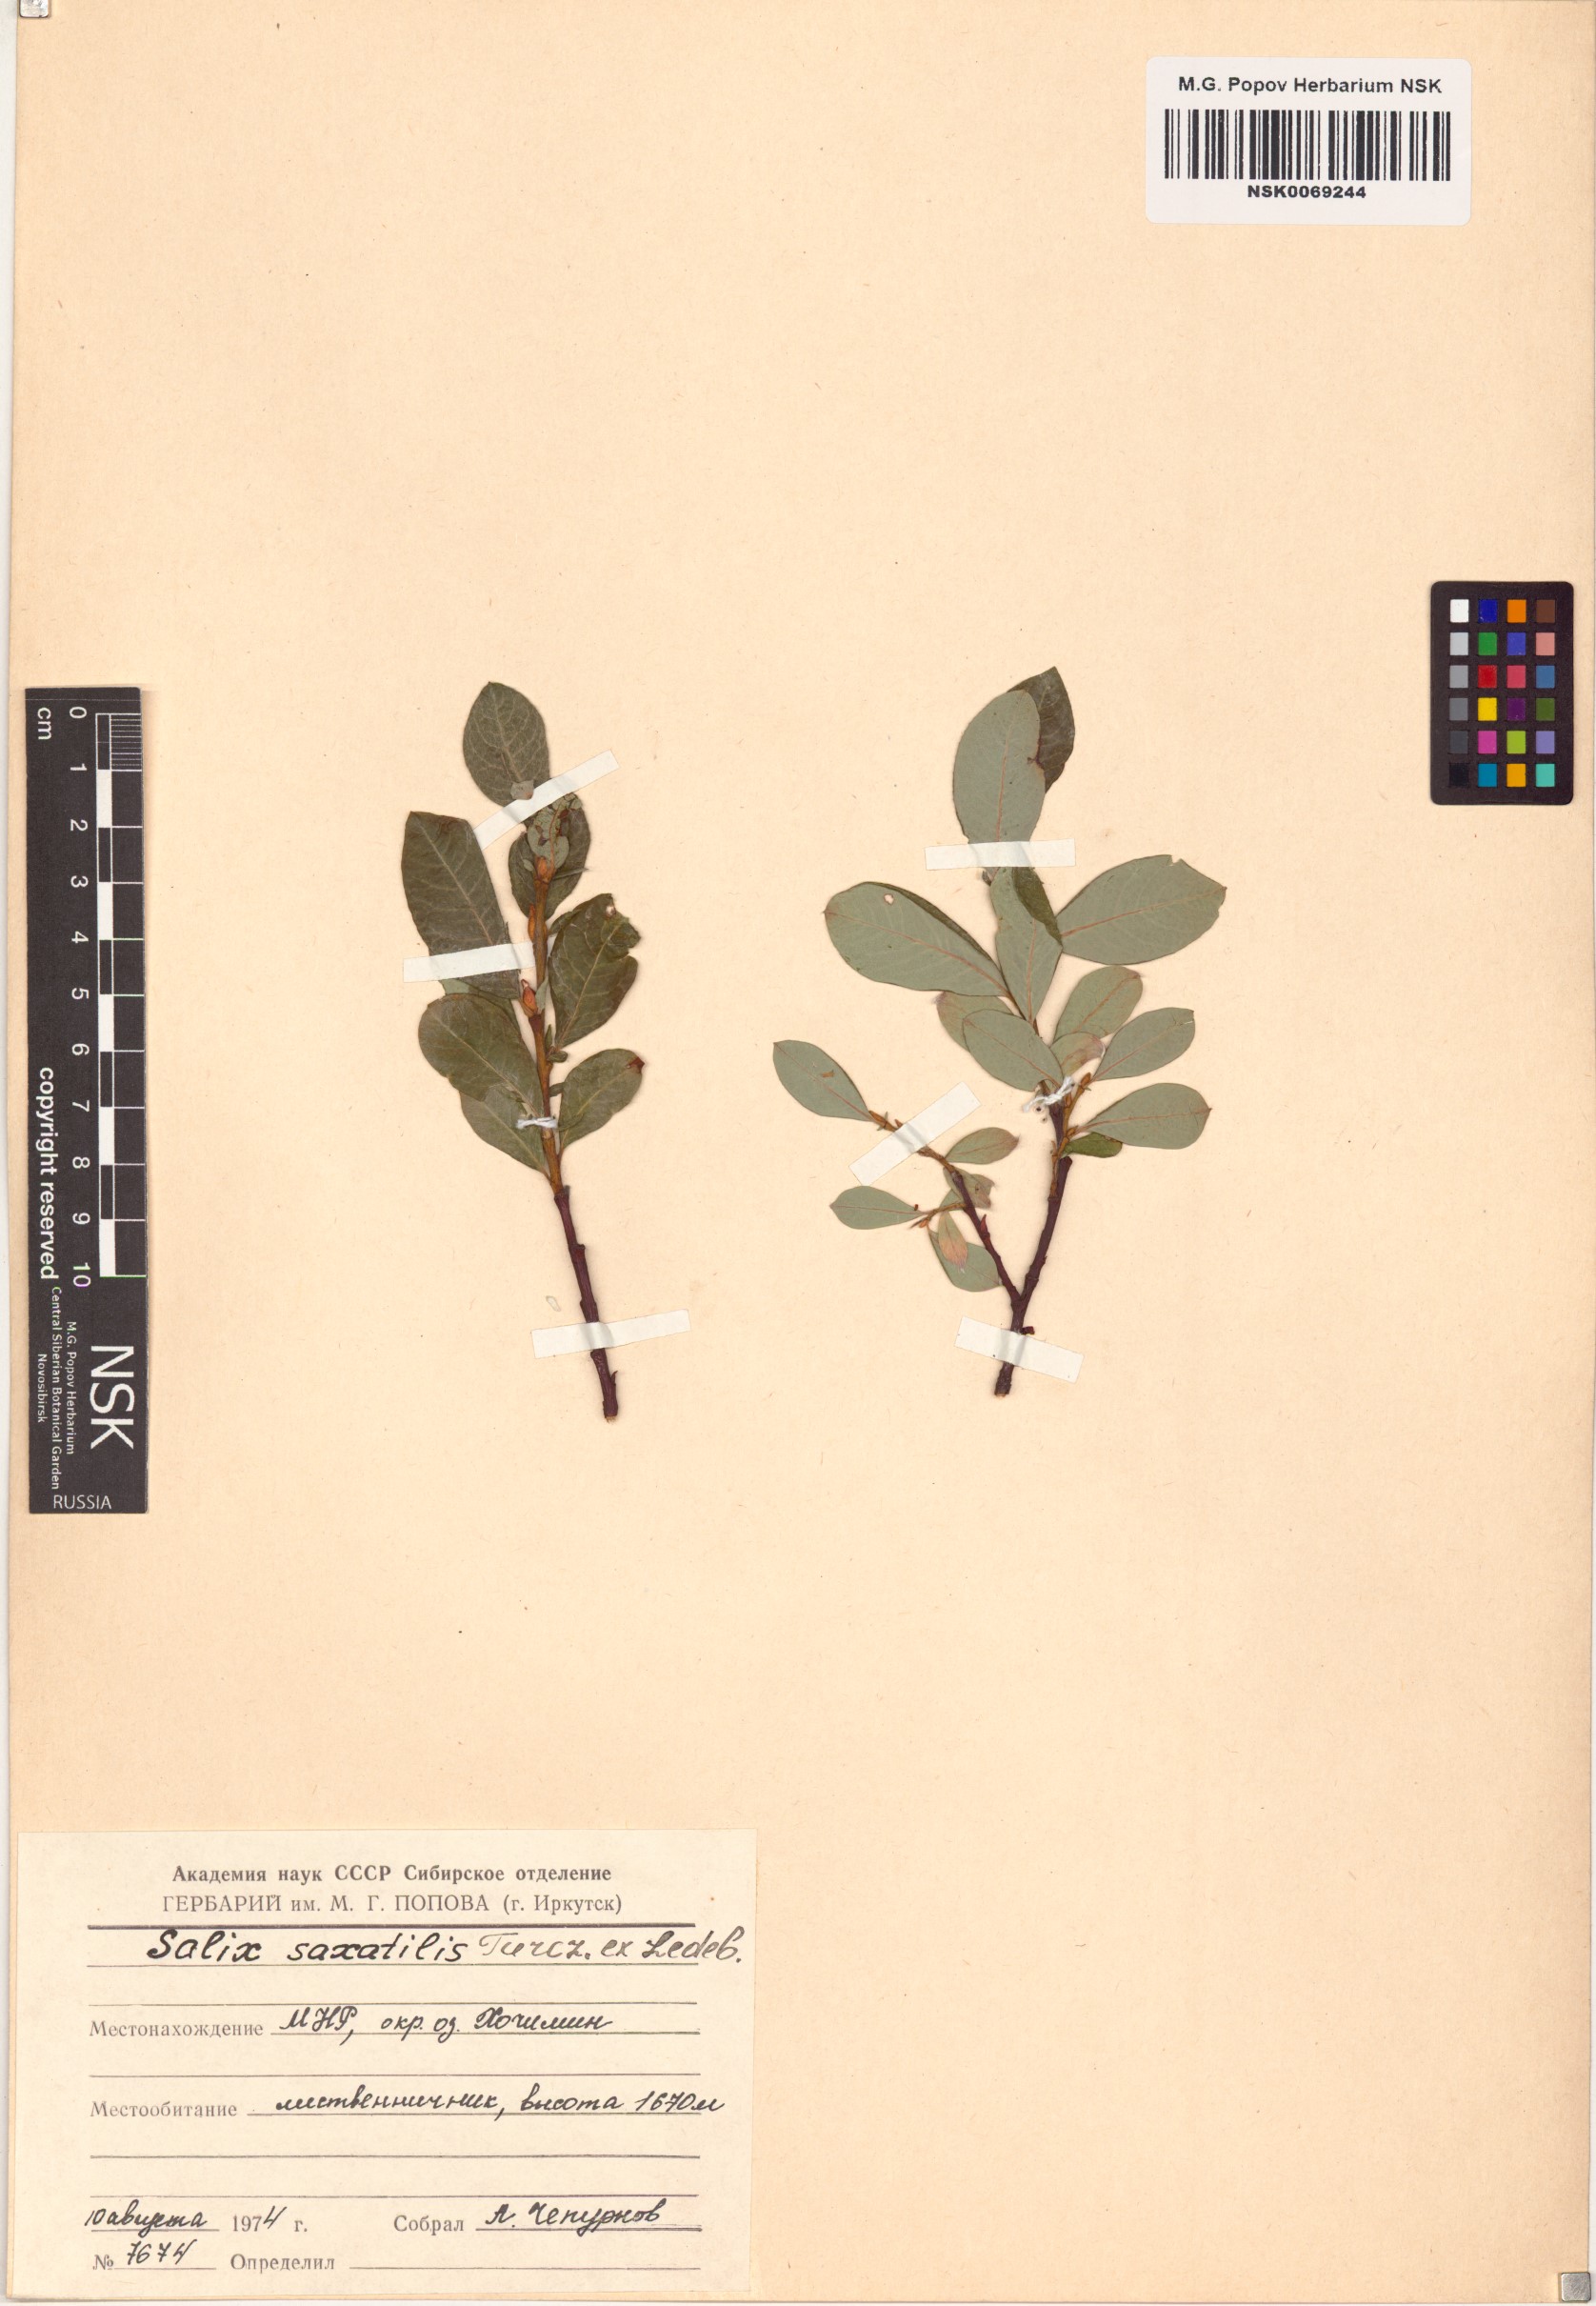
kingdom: Plantae
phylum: Tracheophyta
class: Magnoliopsida
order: Malpighiales
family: Salicaceae
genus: Salix
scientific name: Salix saxatilis
